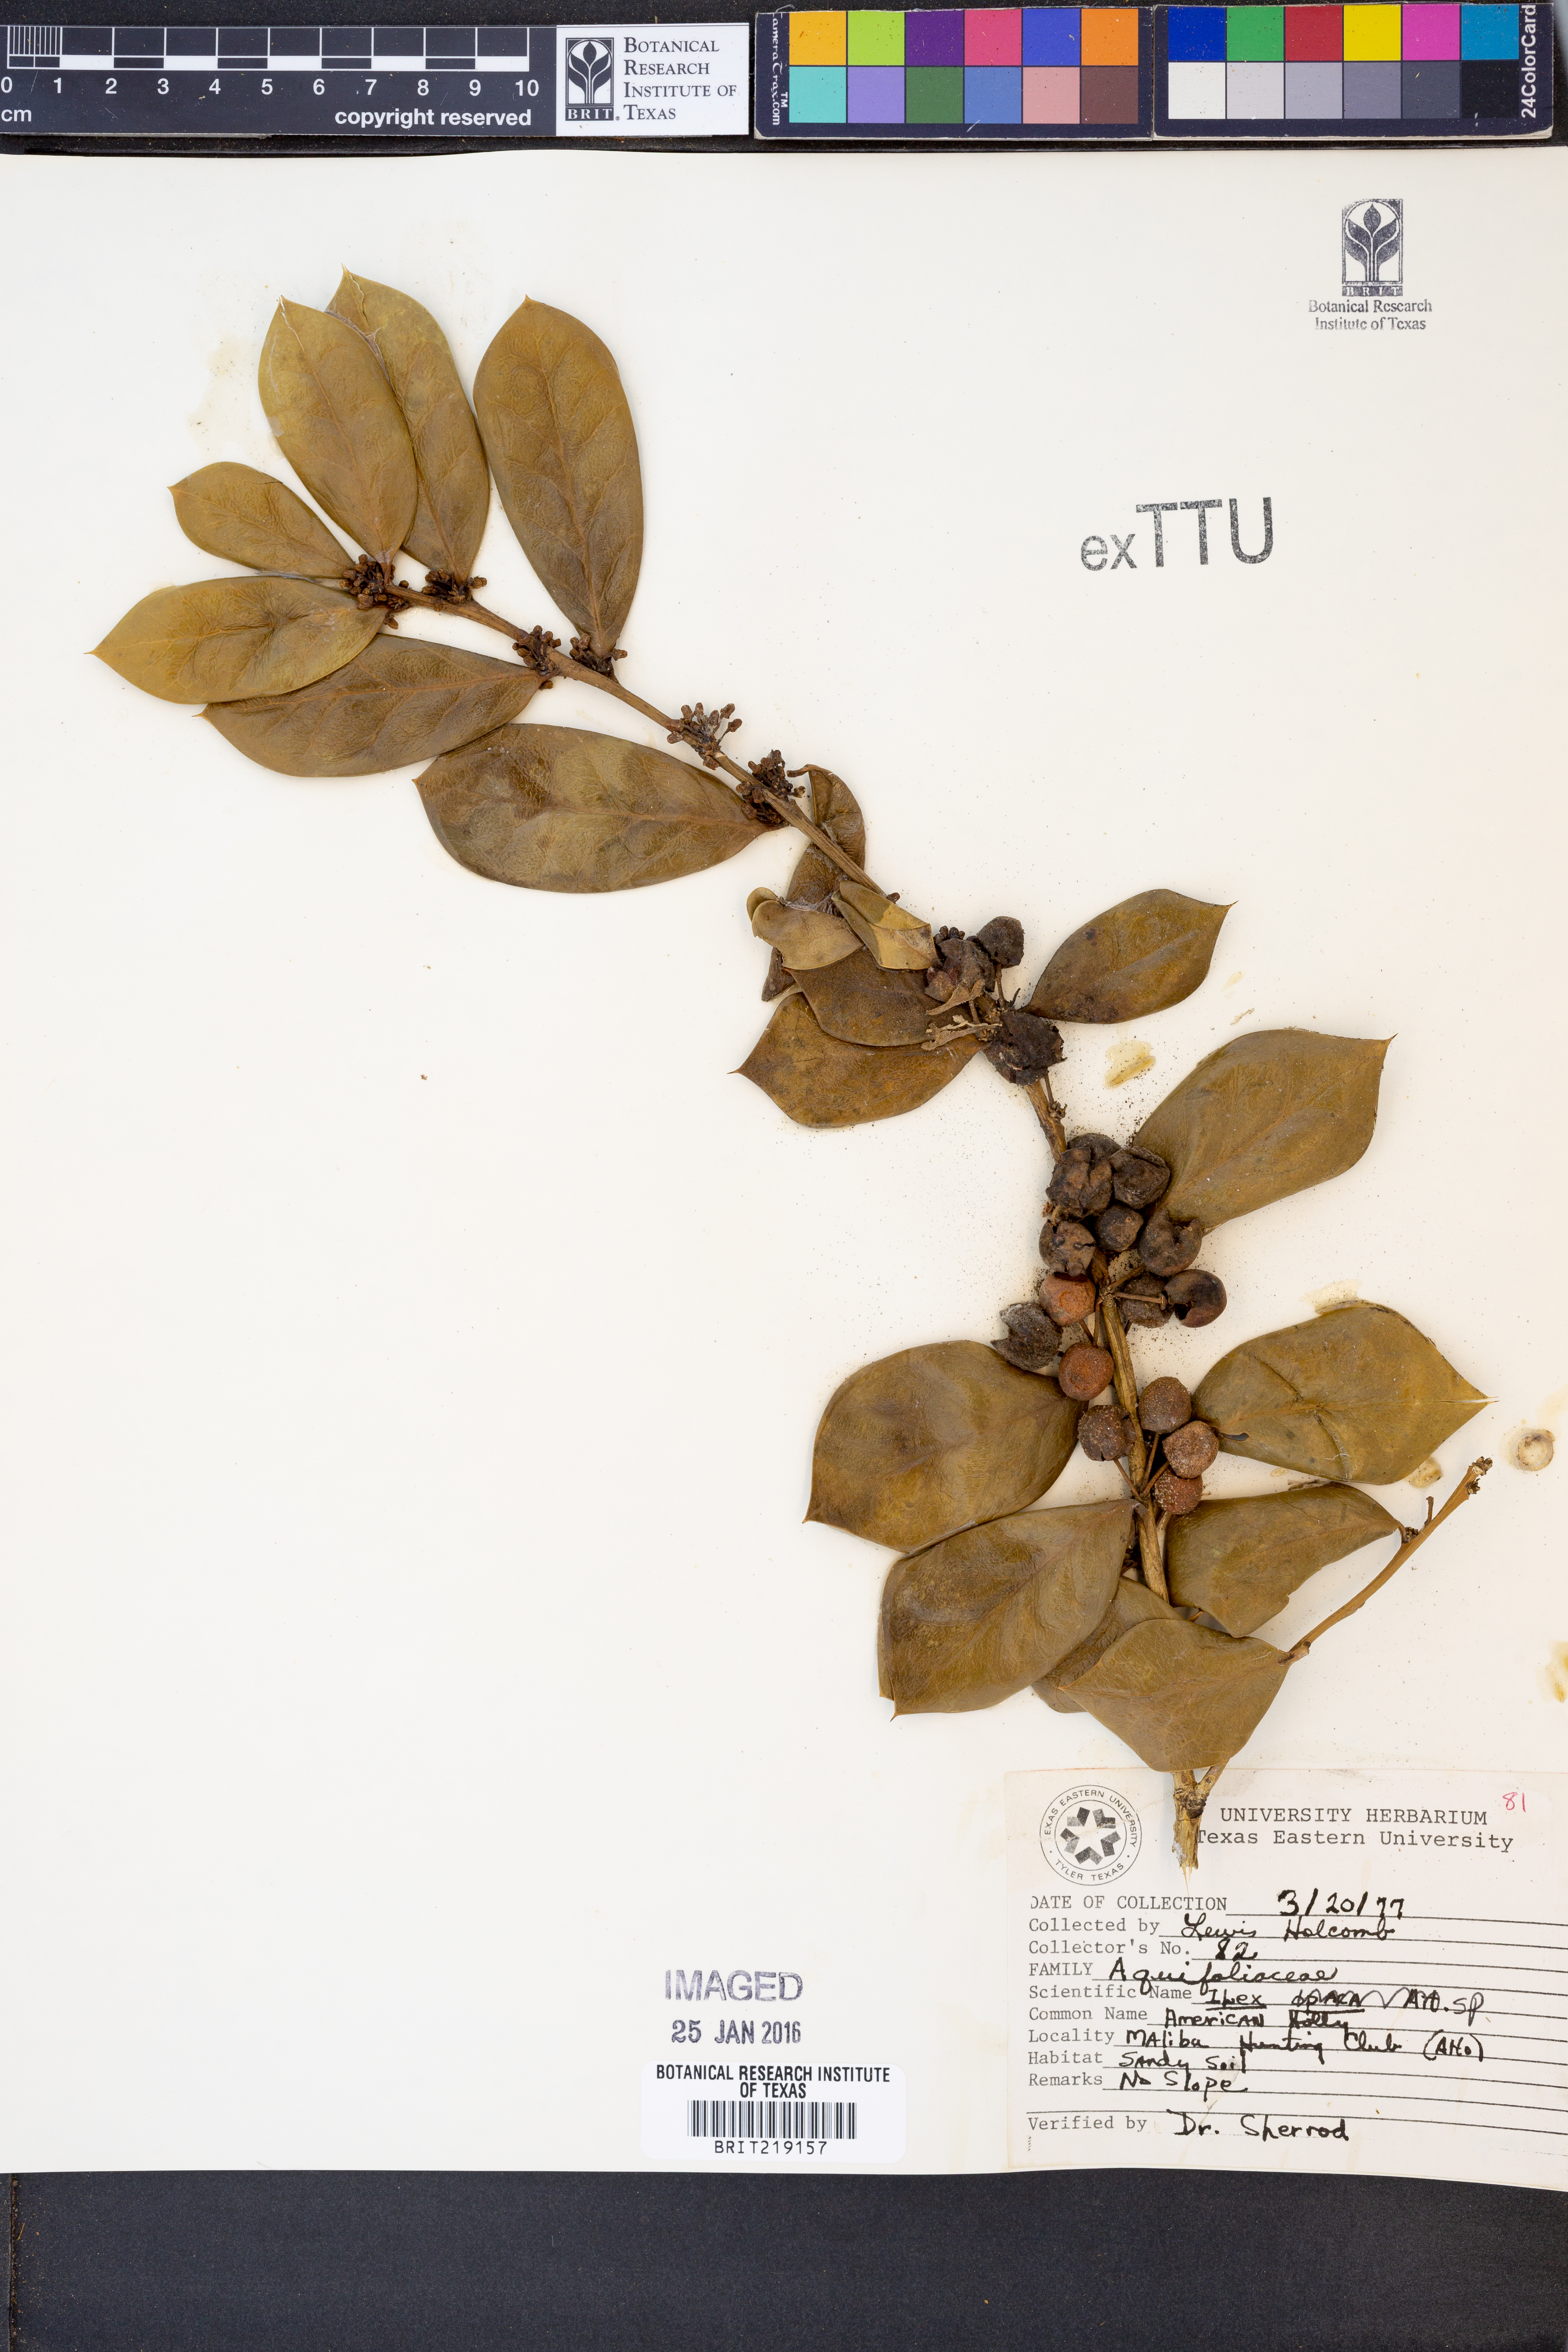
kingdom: Plantae
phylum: Tracheophyta
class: Magnoliopsida
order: Aquifoliales
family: Aquifoliaceae
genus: Ilex
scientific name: Ilex
